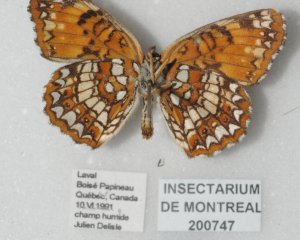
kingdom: Animalia
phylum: Arthropoda
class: Insecta
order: Lepidoptera
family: Nymphalidae
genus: Chlosyne
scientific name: Chlosyne harrisii
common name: Harris's Checkerspot
